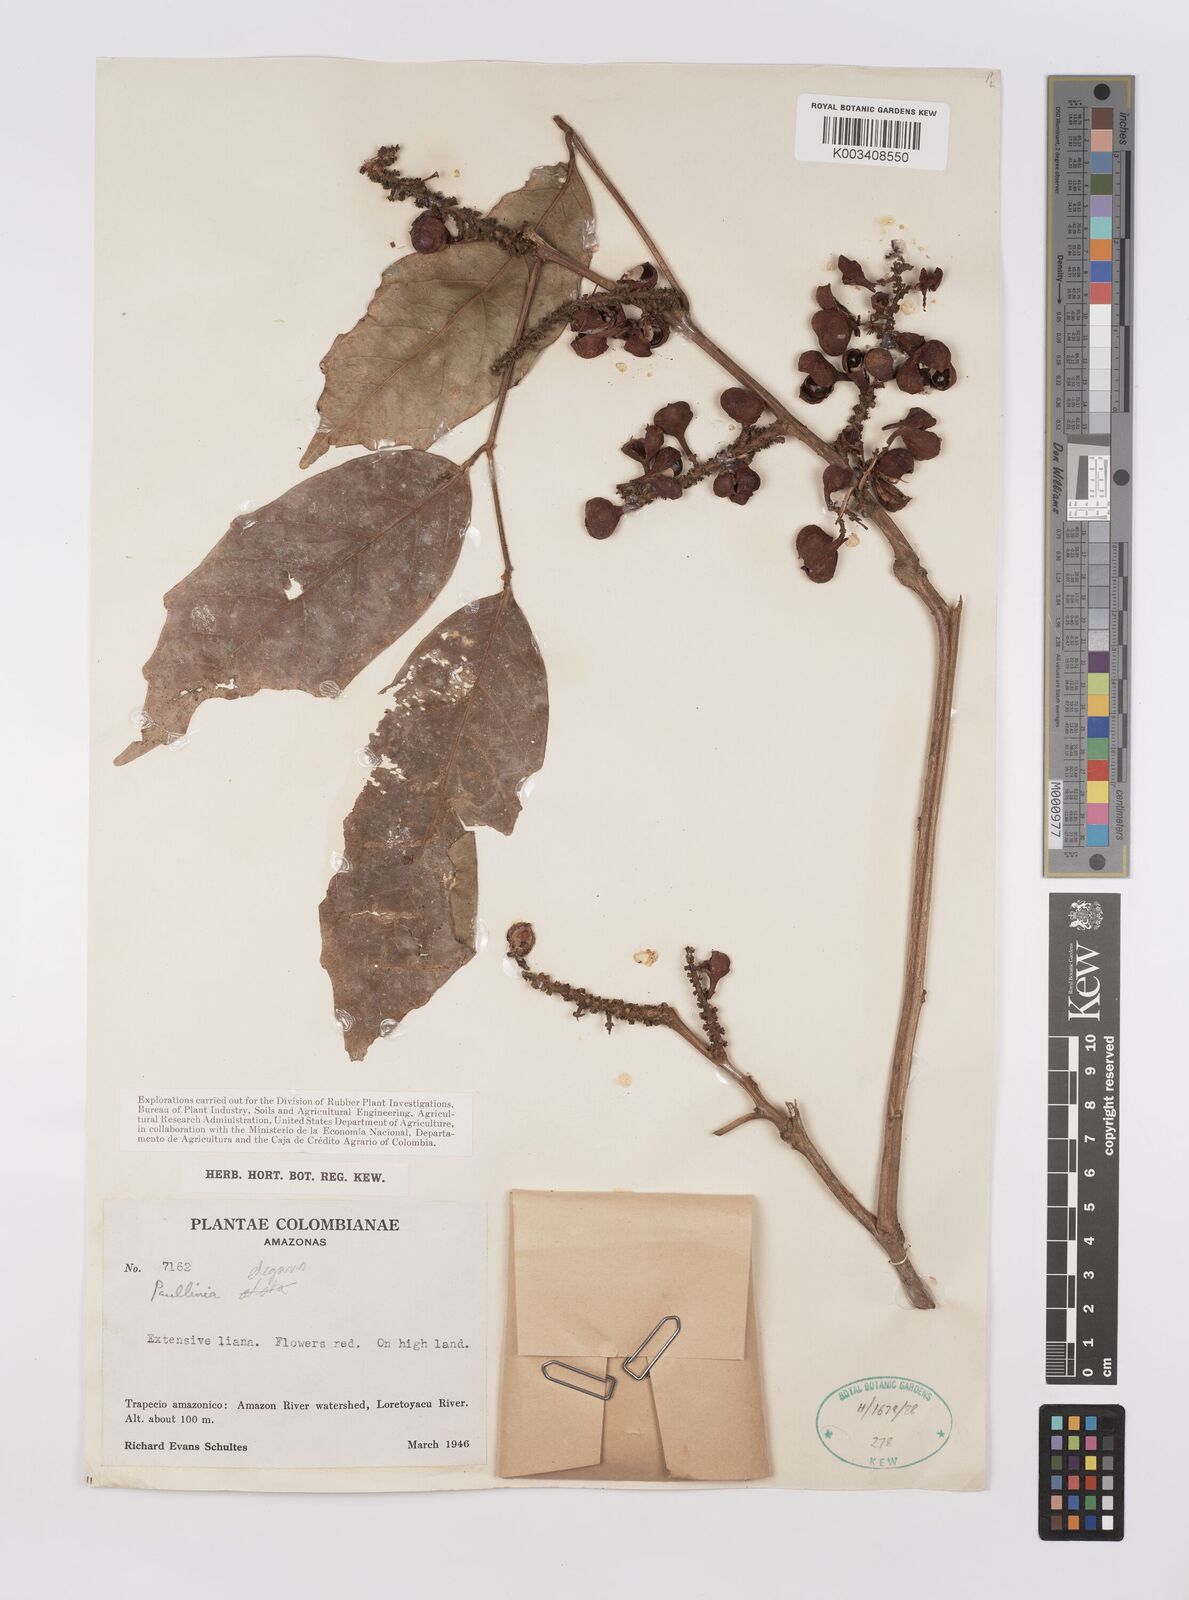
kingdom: Plantae
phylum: Tracheophyta
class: Magnoliopsida
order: Sapindales
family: Sapindaceae
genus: Paullinia
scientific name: Paullinia elegans
